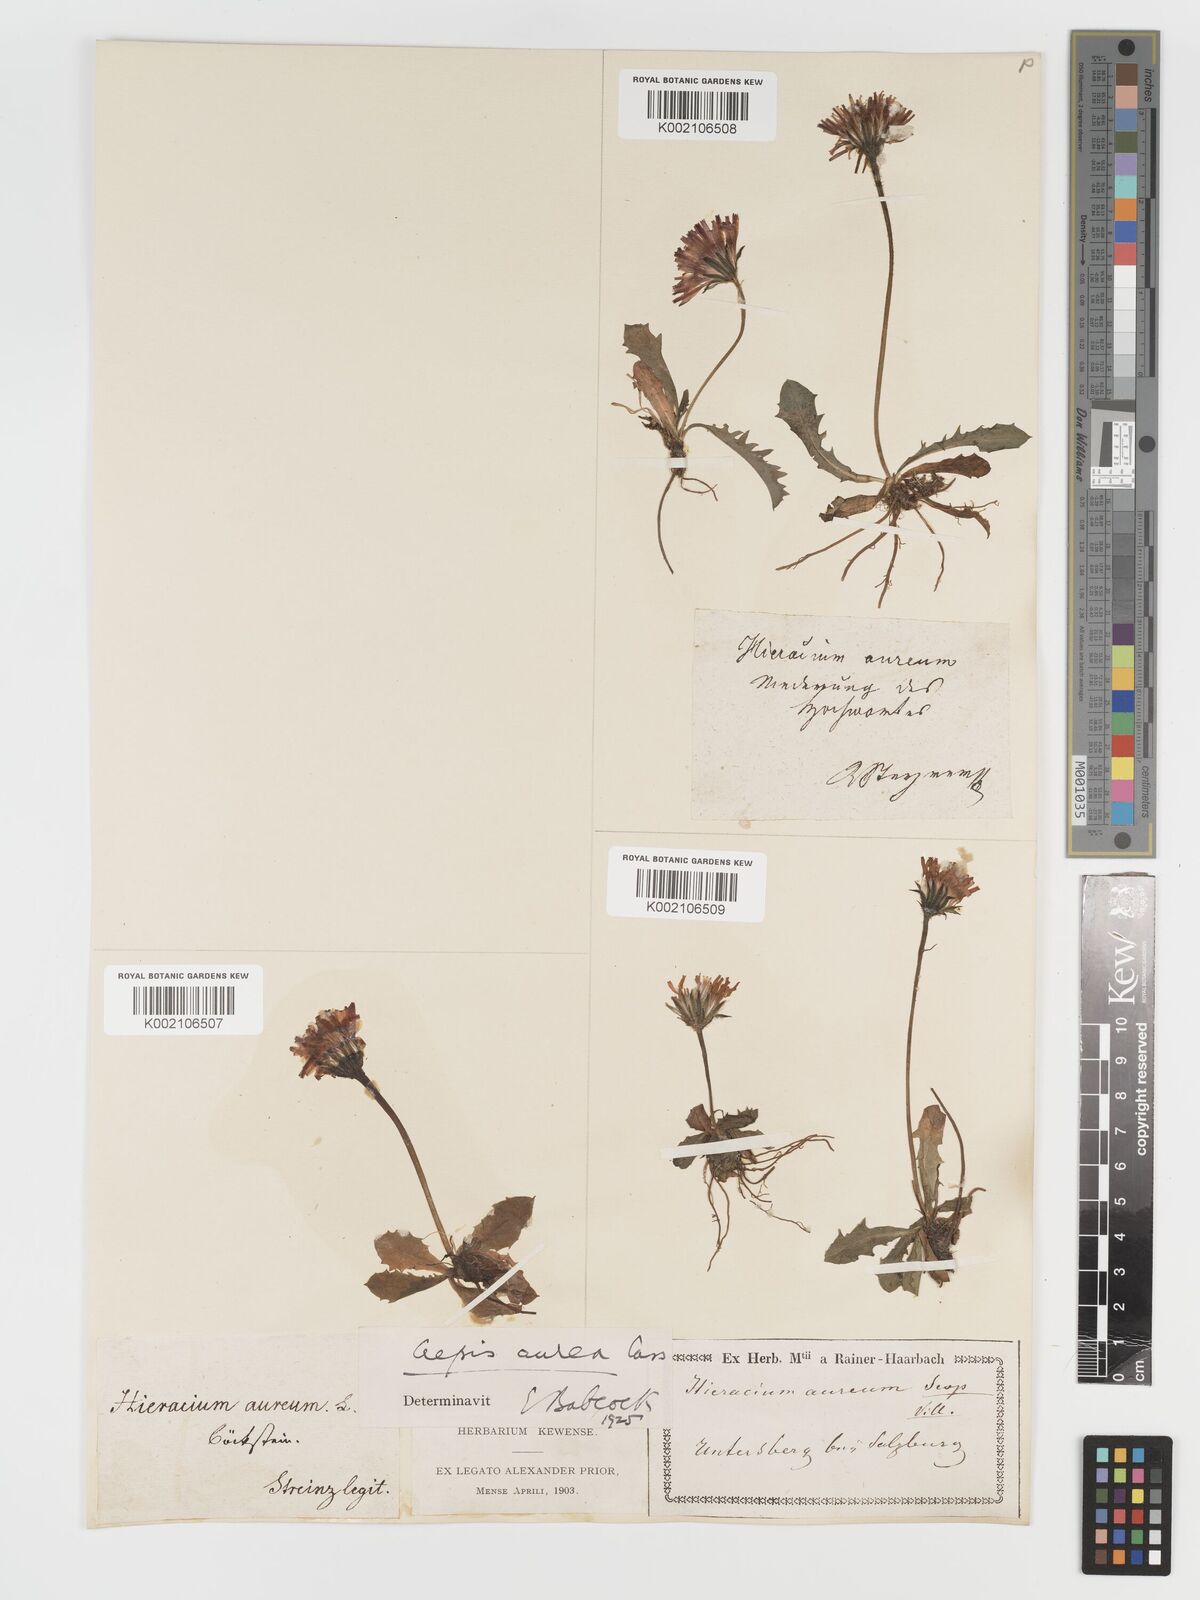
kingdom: Plantae
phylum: Tracheophyta
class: Magnoliopsida
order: Asterales
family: Asteraceae
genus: Crepis
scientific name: Crepis aurea
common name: Golden hawk's-beard
